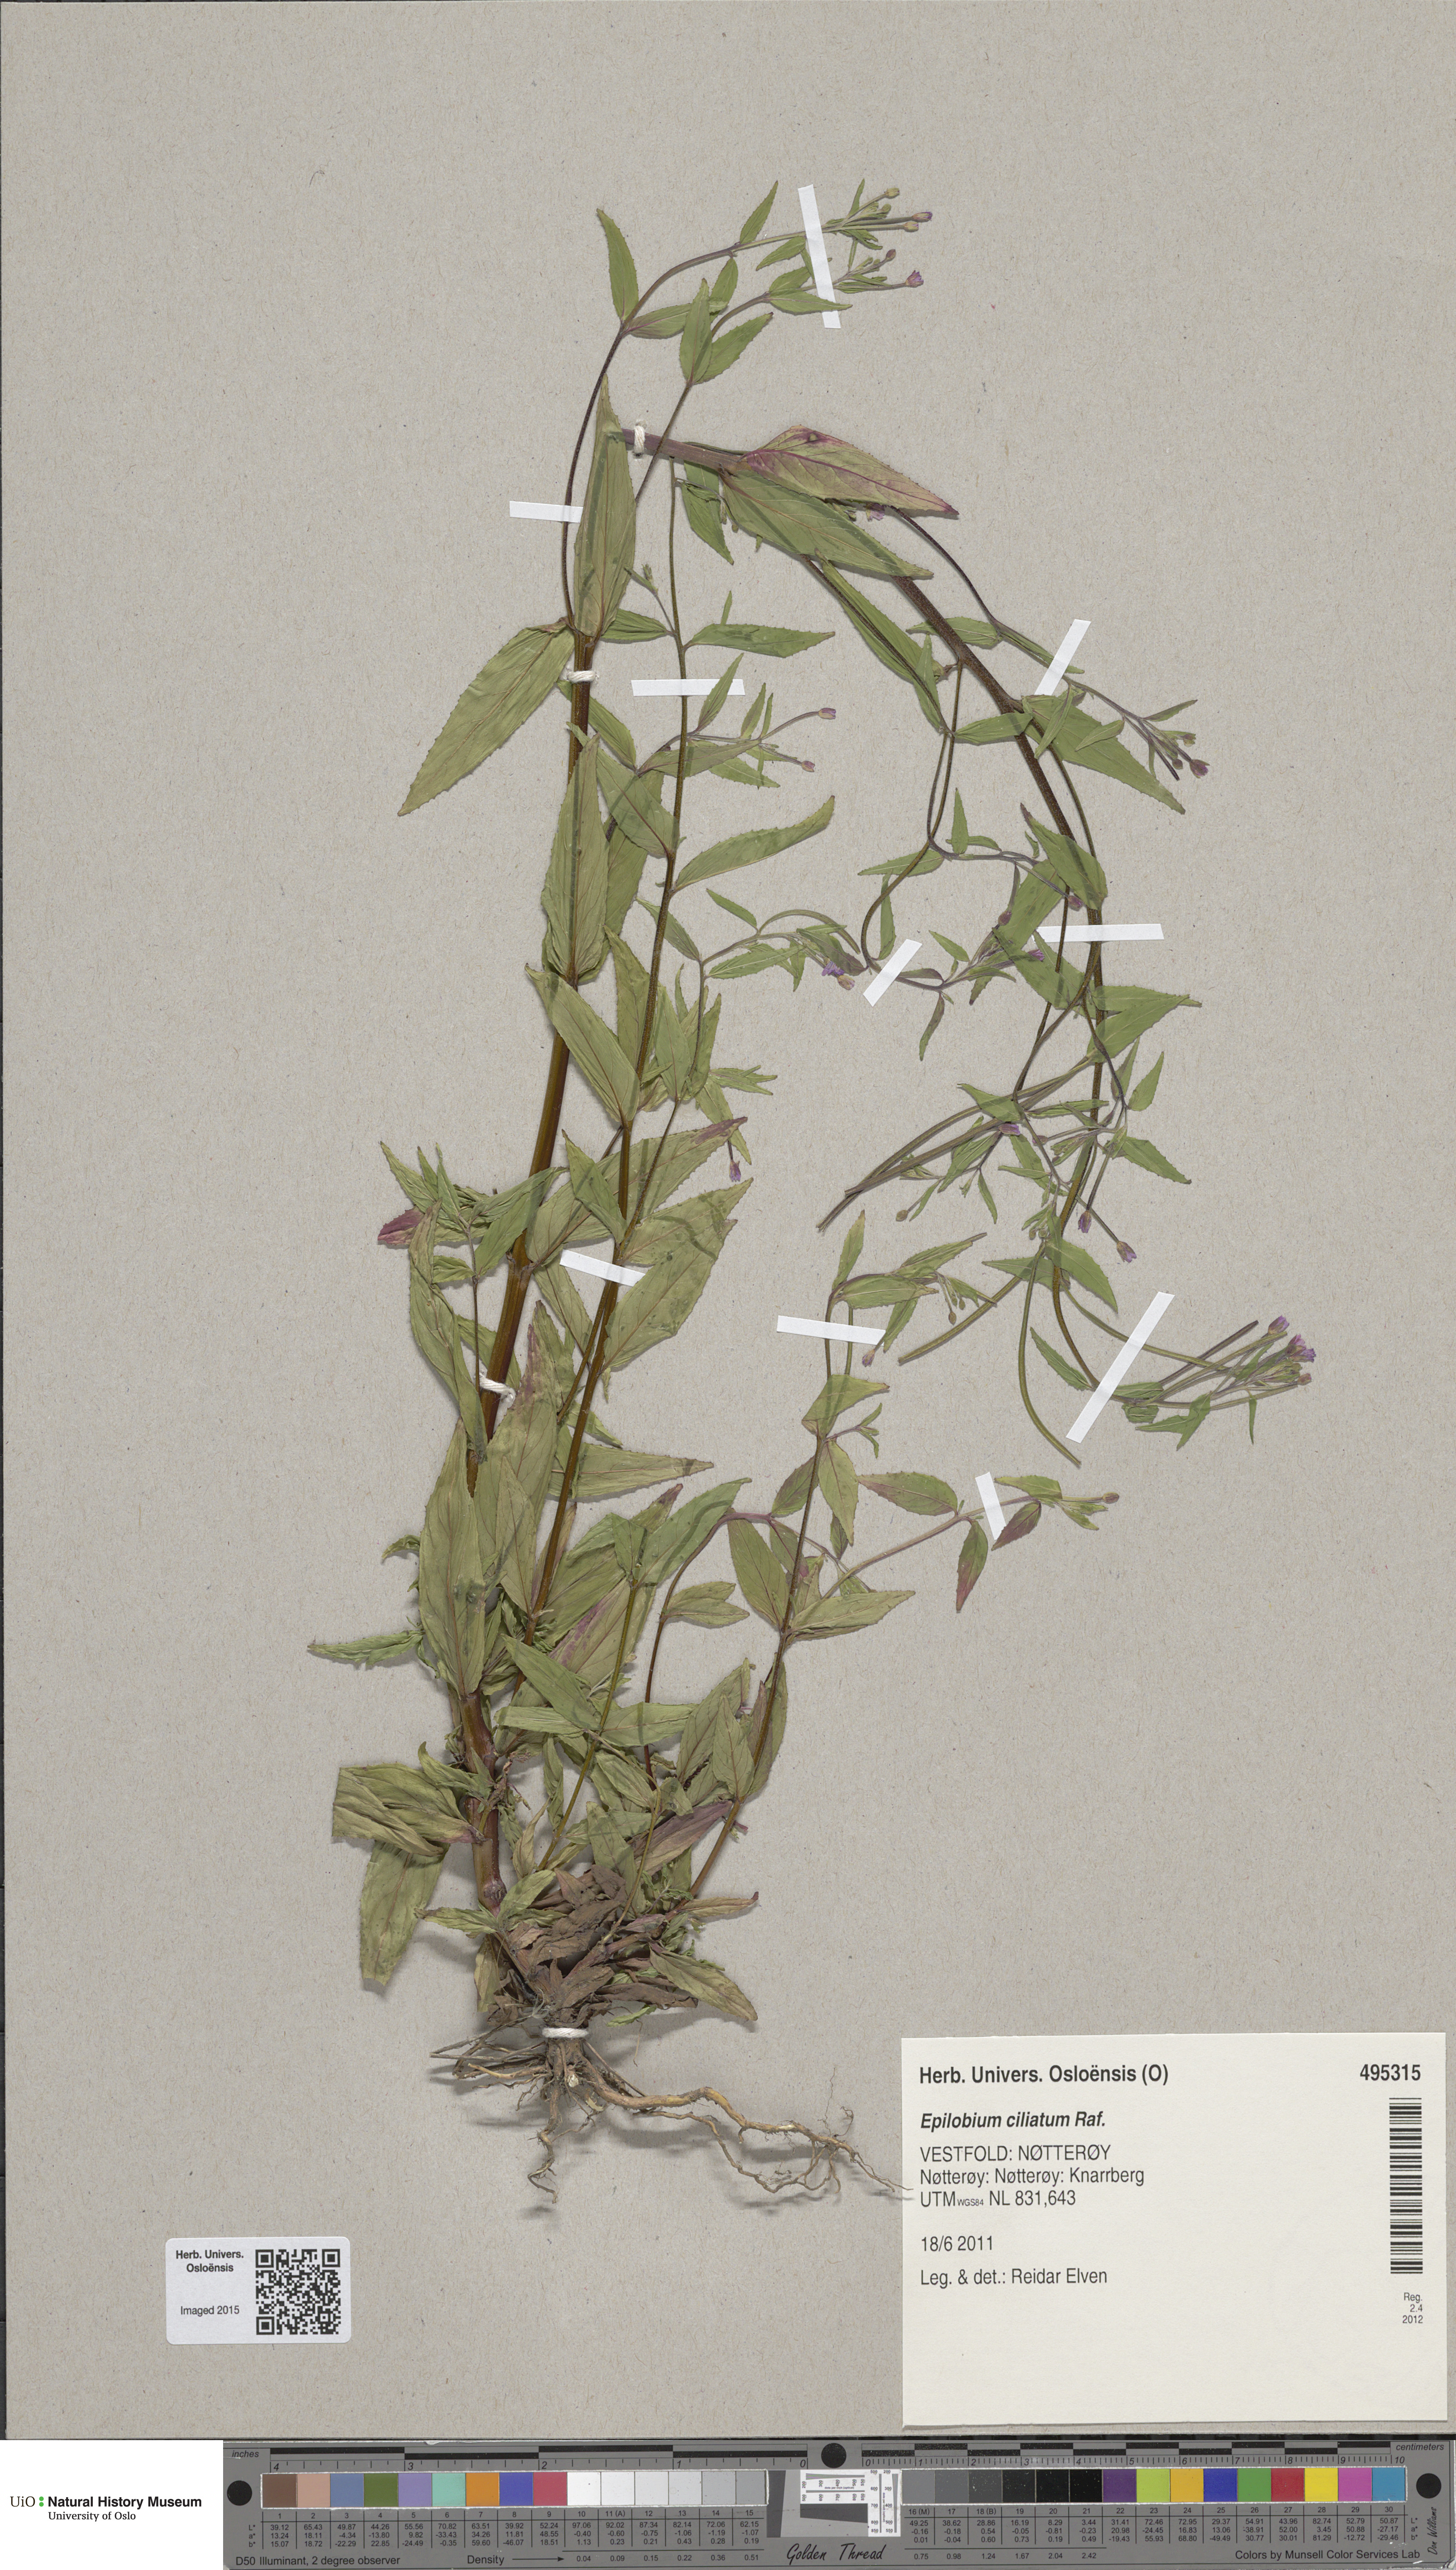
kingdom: Plantae
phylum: Tracheophyta
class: Magnoliopsida
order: Myrtales
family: Onagraceae
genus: Epilobium
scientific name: Epilobium ciliatum
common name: American willowherb
